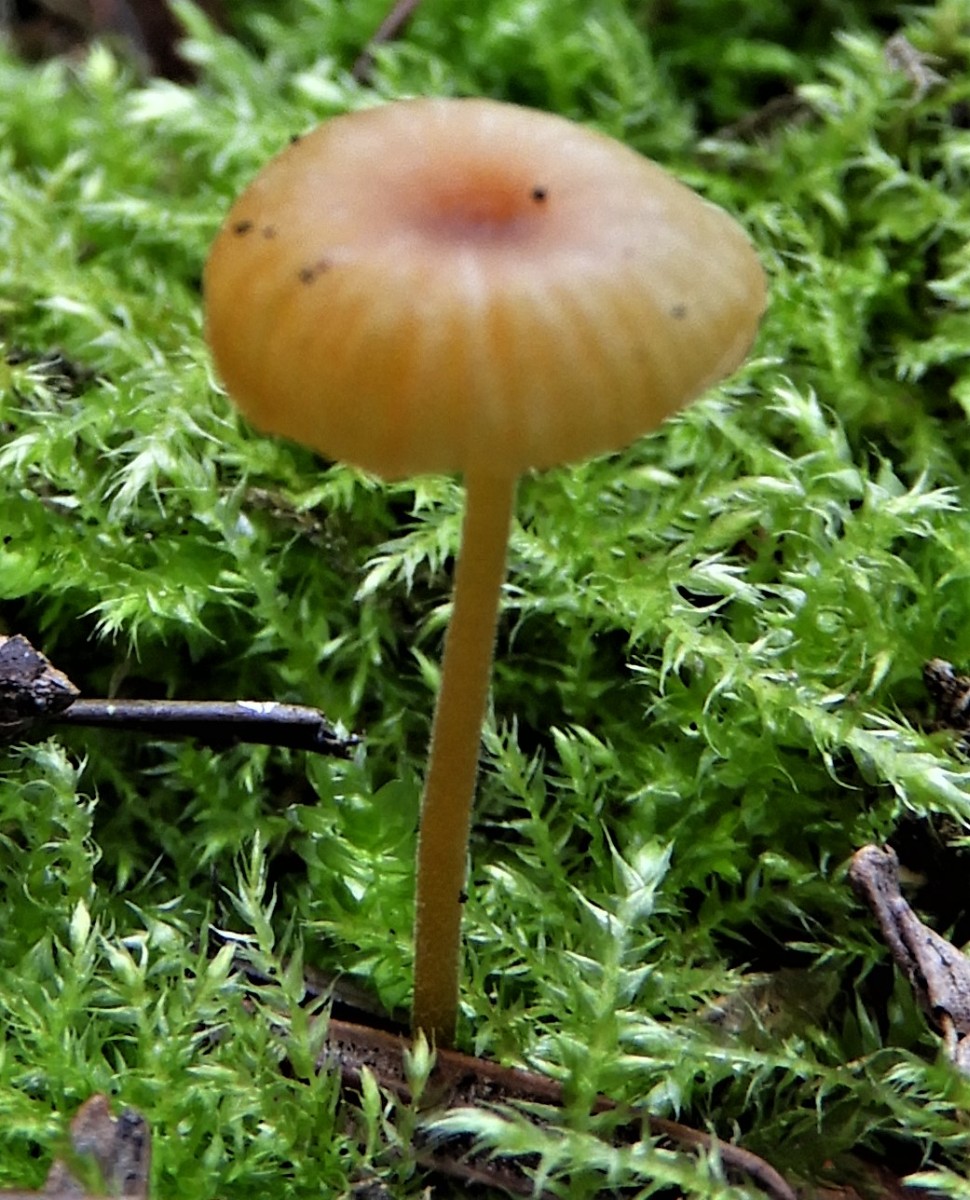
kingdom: Fungi
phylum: Basidiomycota
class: Agaricomycetes
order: Hymenochaetales
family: Rickenellaceae
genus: Rickenella
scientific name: Rickenella fibula
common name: orange mosnavlehat
